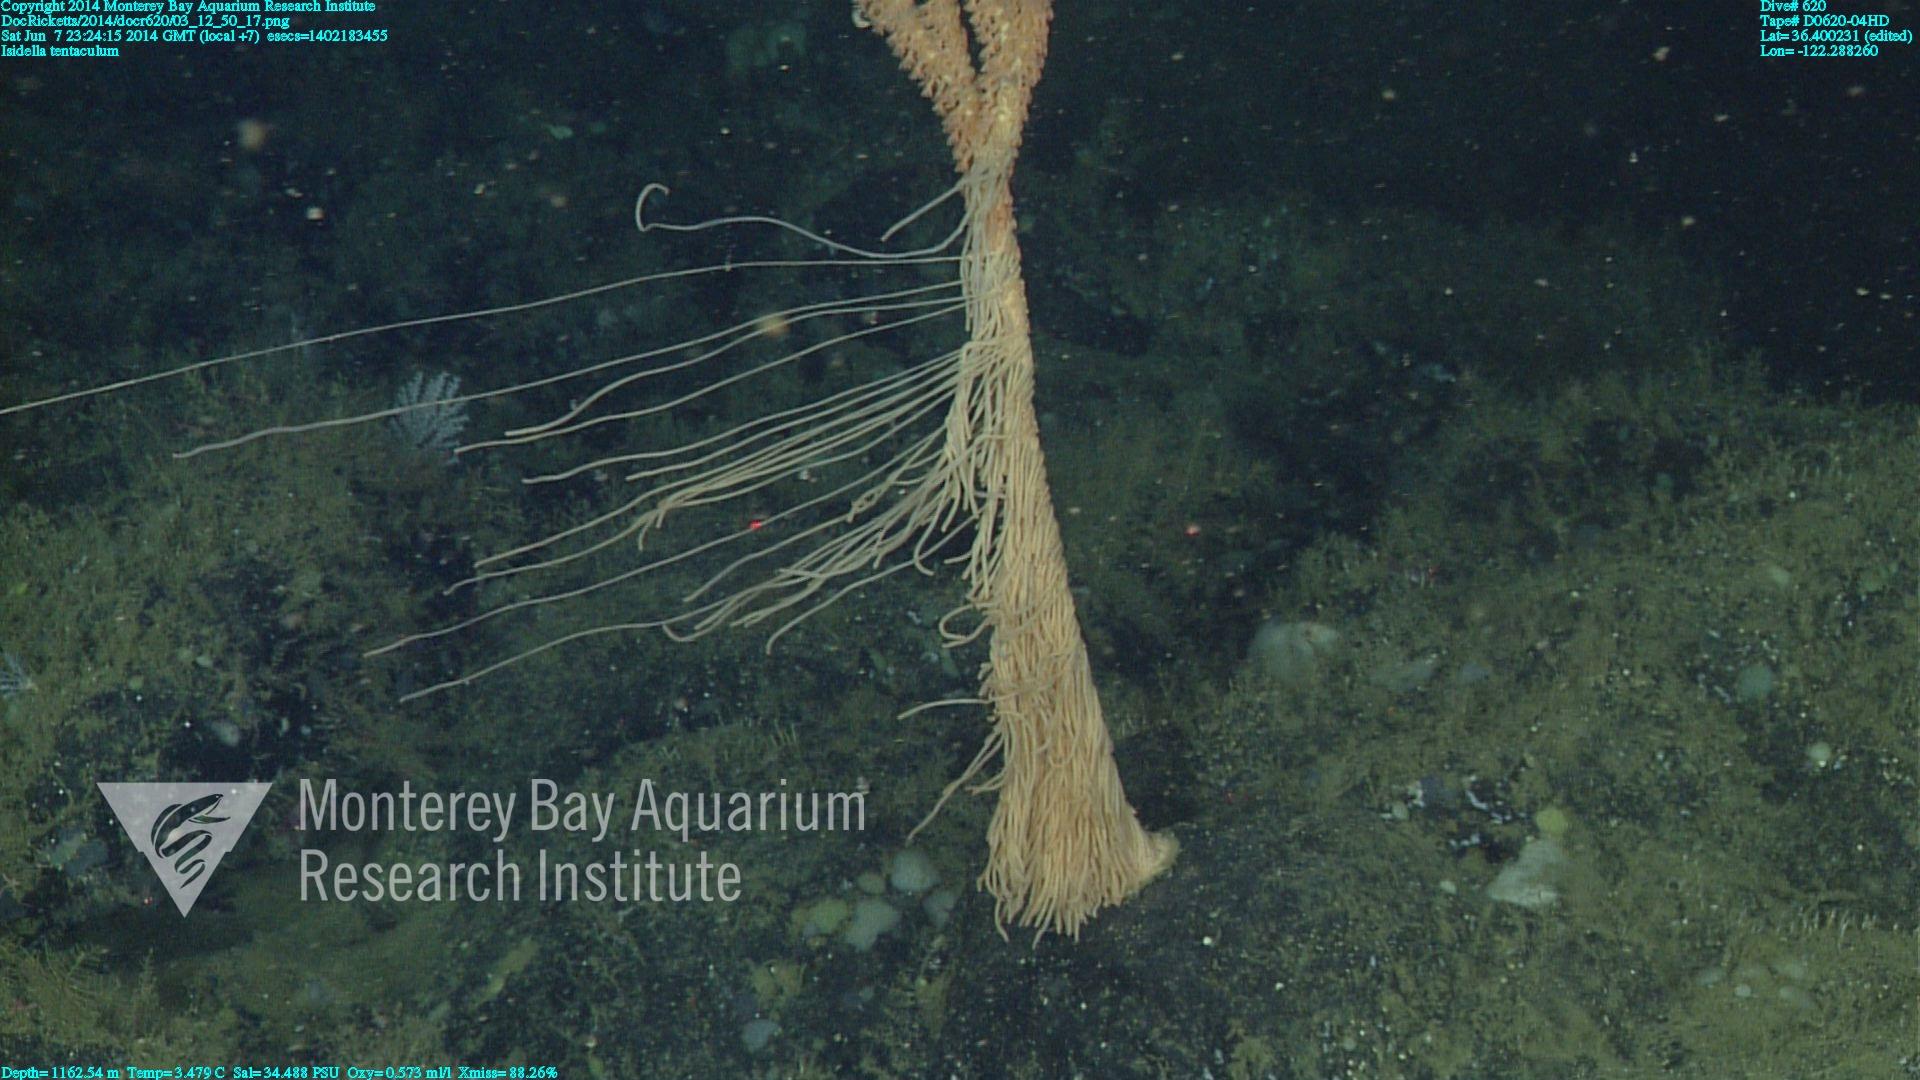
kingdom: Animalia
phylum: Cnidaria
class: Anthozoa
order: Scleralcyonacea
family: Keratoisididae
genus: Isidella
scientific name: Isidella tentaculum
